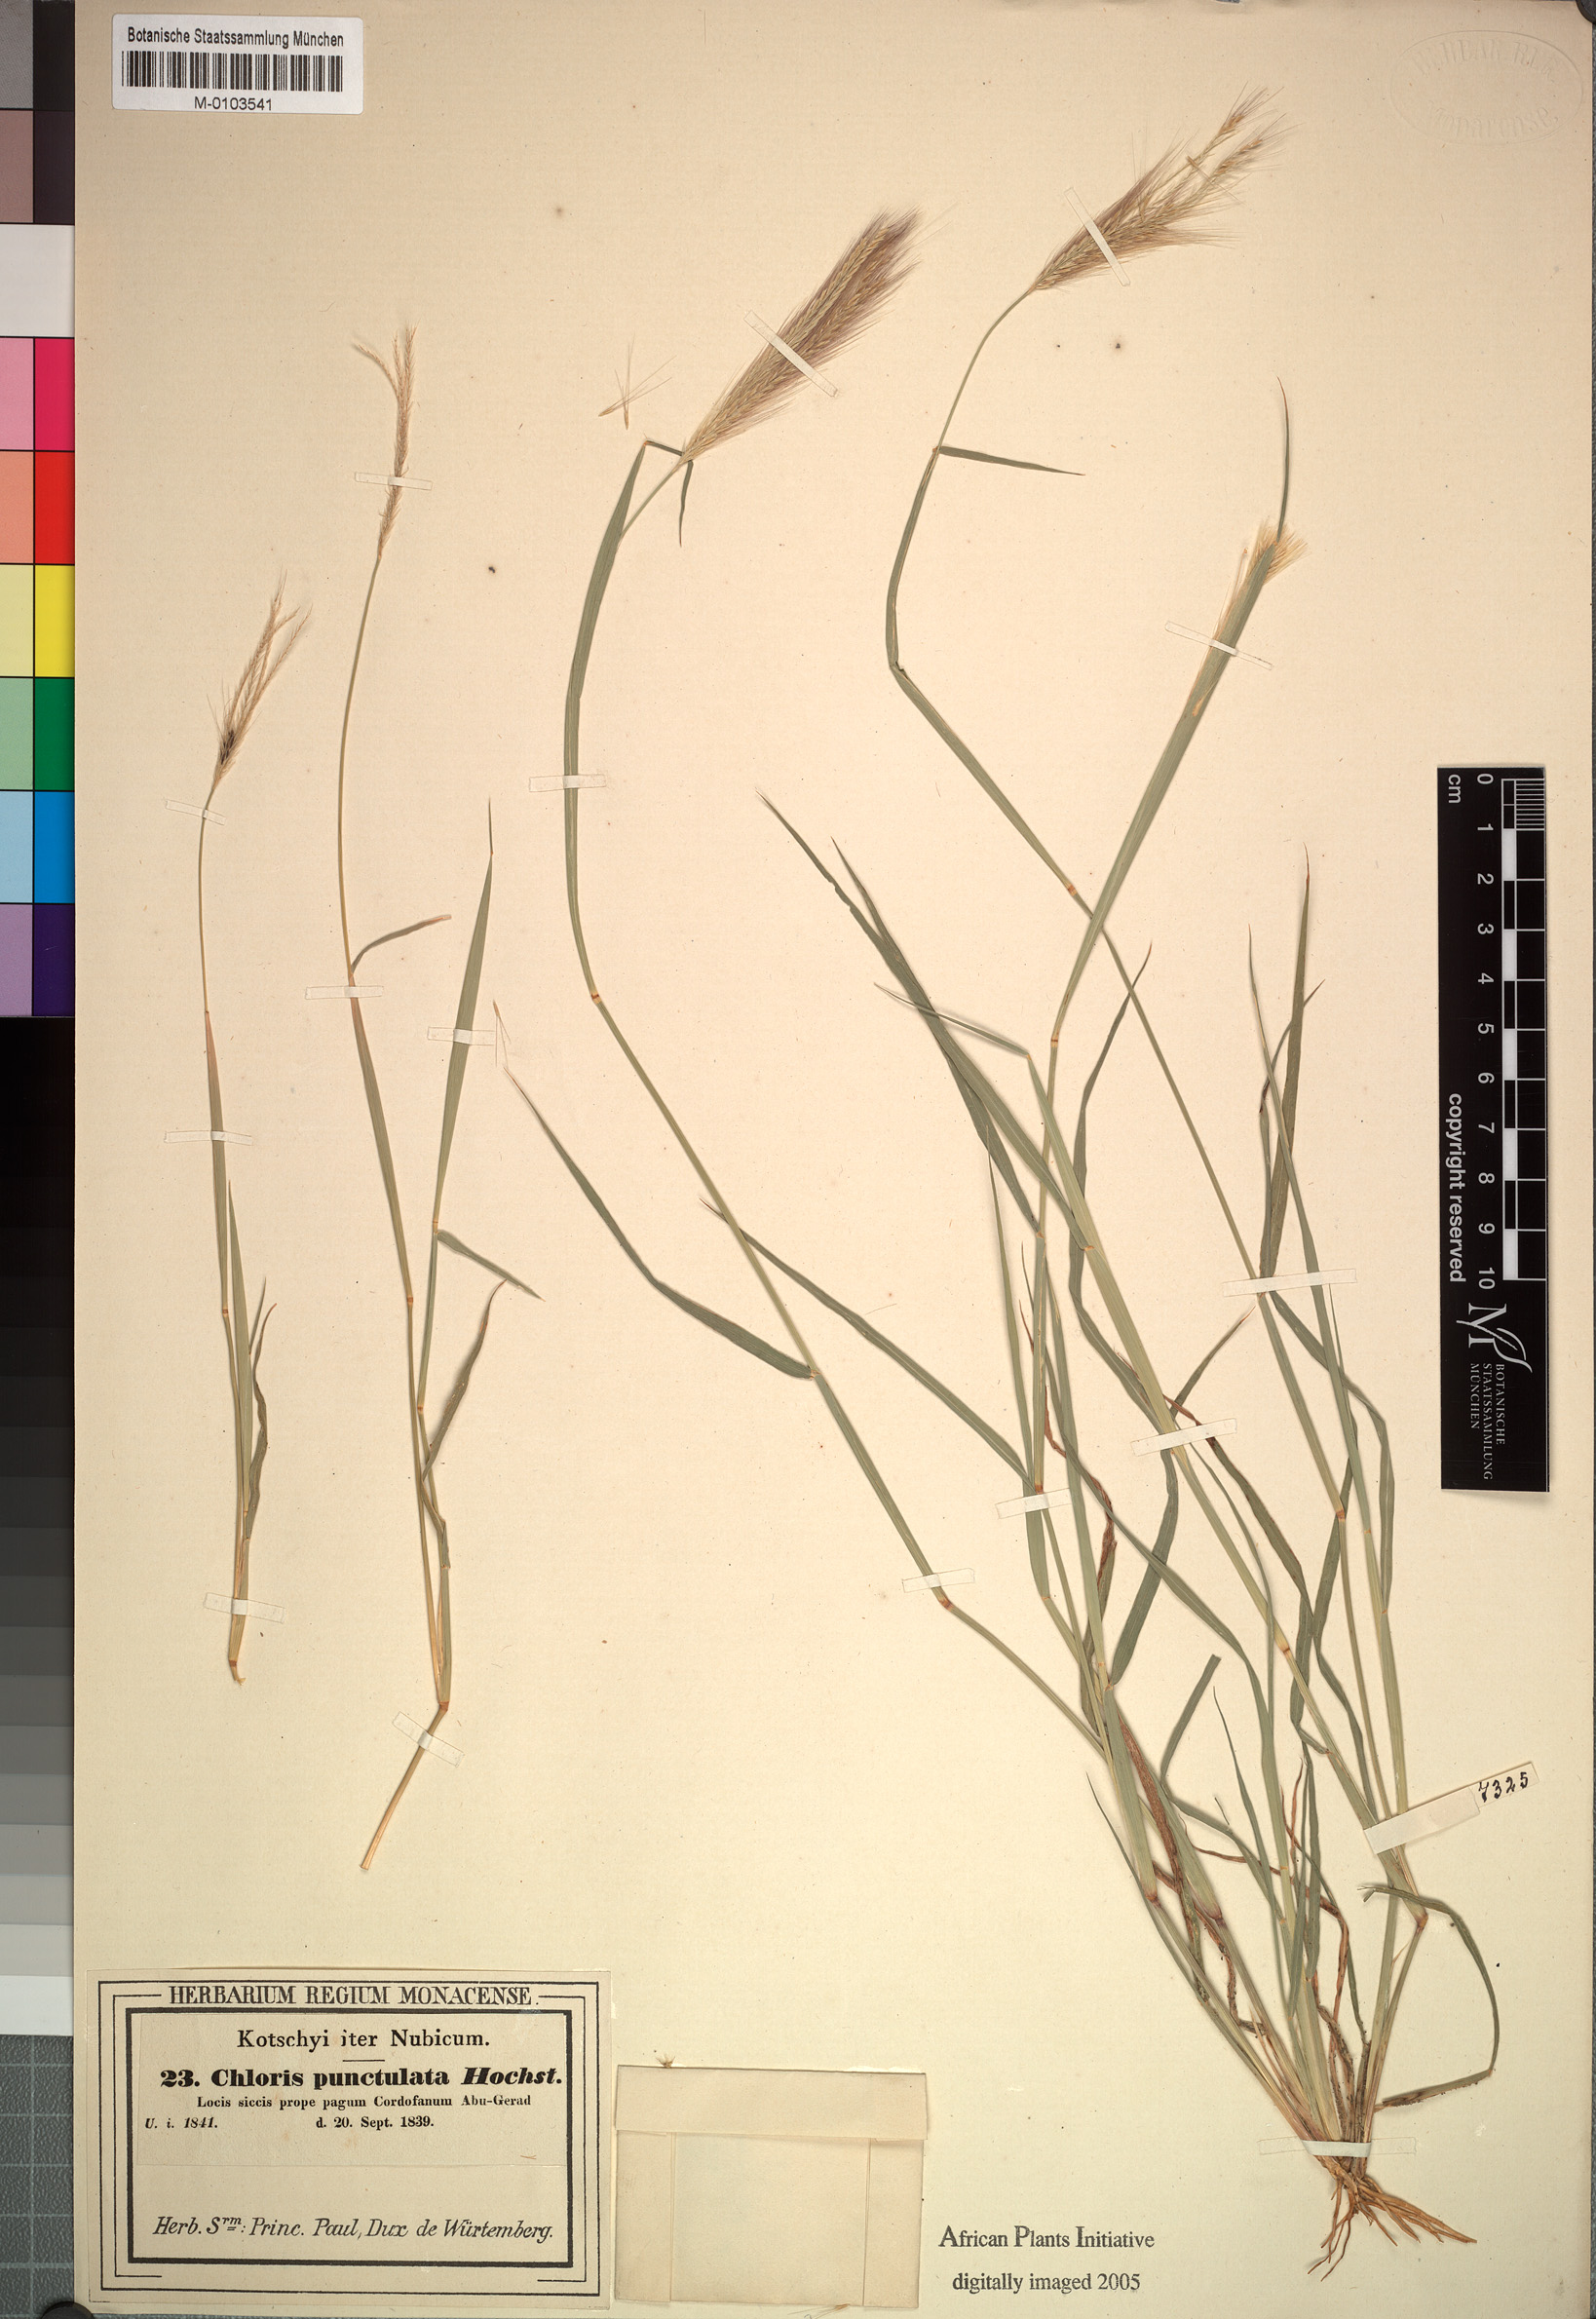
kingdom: Plantae
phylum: Tracheophyta
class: Liliopsida
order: Poales
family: Poaceae
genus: Enteropogon
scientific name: Enteropogon prieurii
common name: Prieur's umbrellagrass
